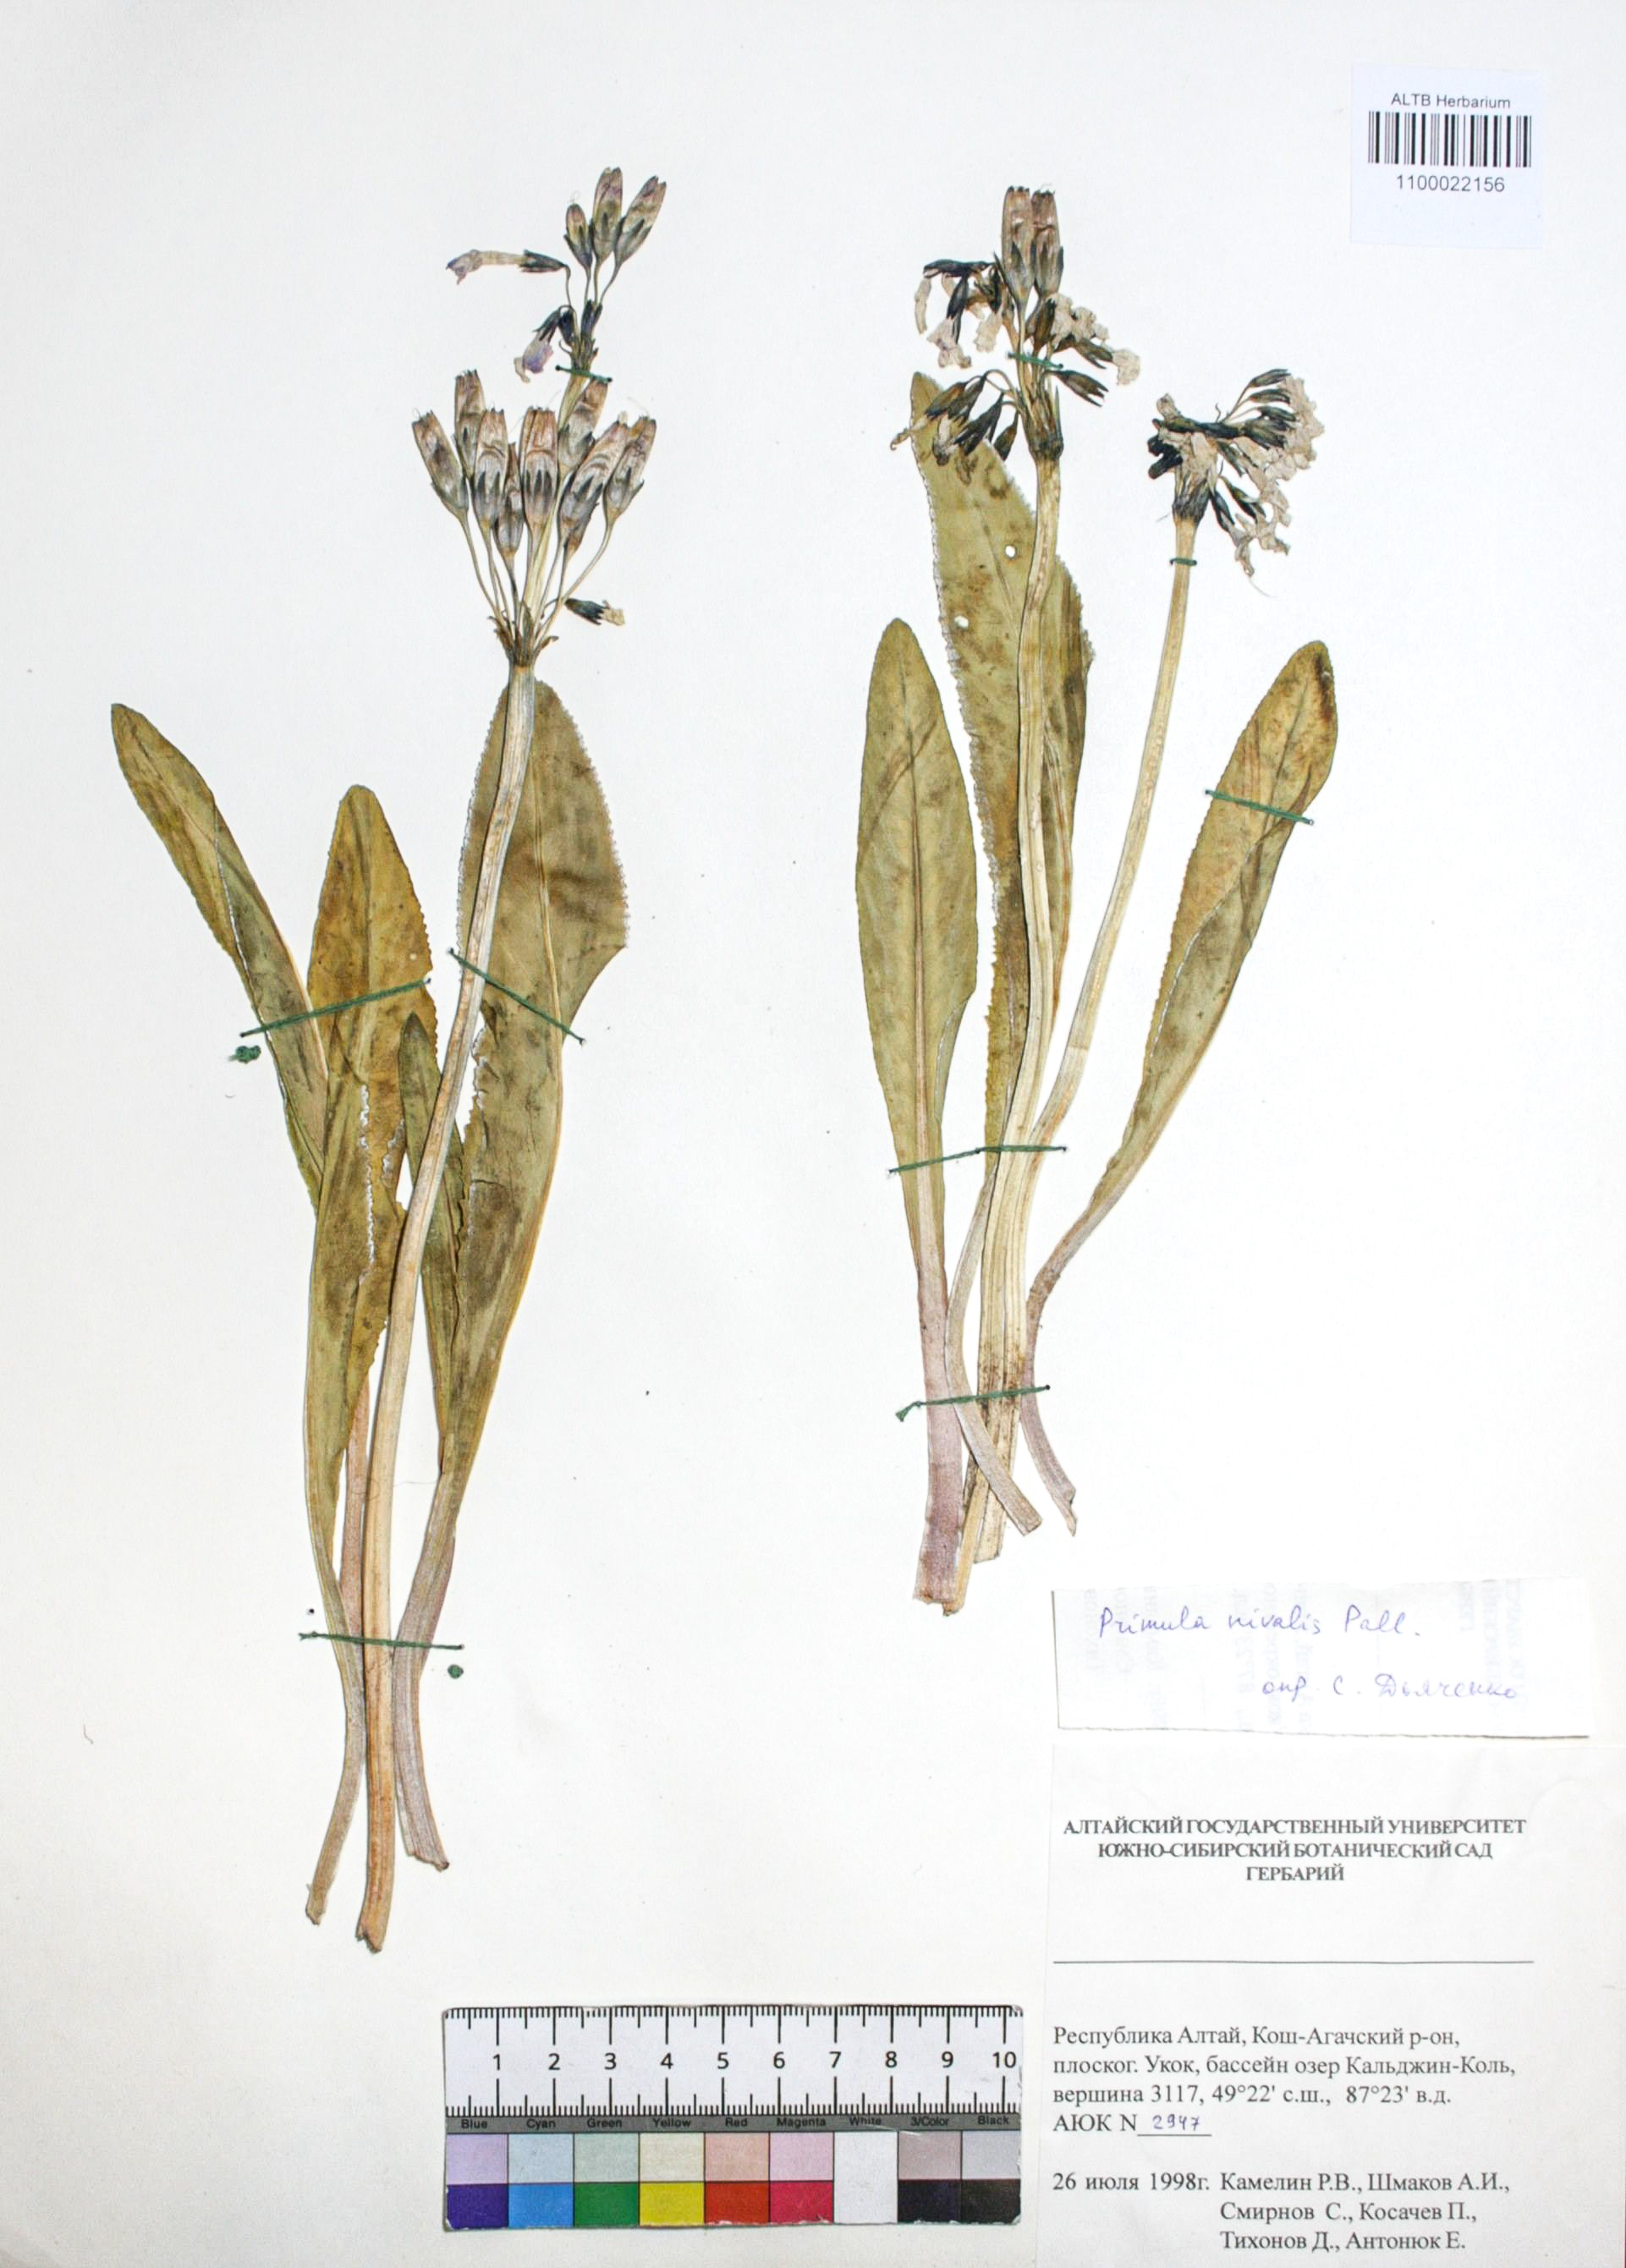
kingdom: Plantae
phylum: Tracheophyta
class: Magnoliopsida
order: Ericales
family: Primulaceae
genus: Primula
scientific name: Primula nivalis
